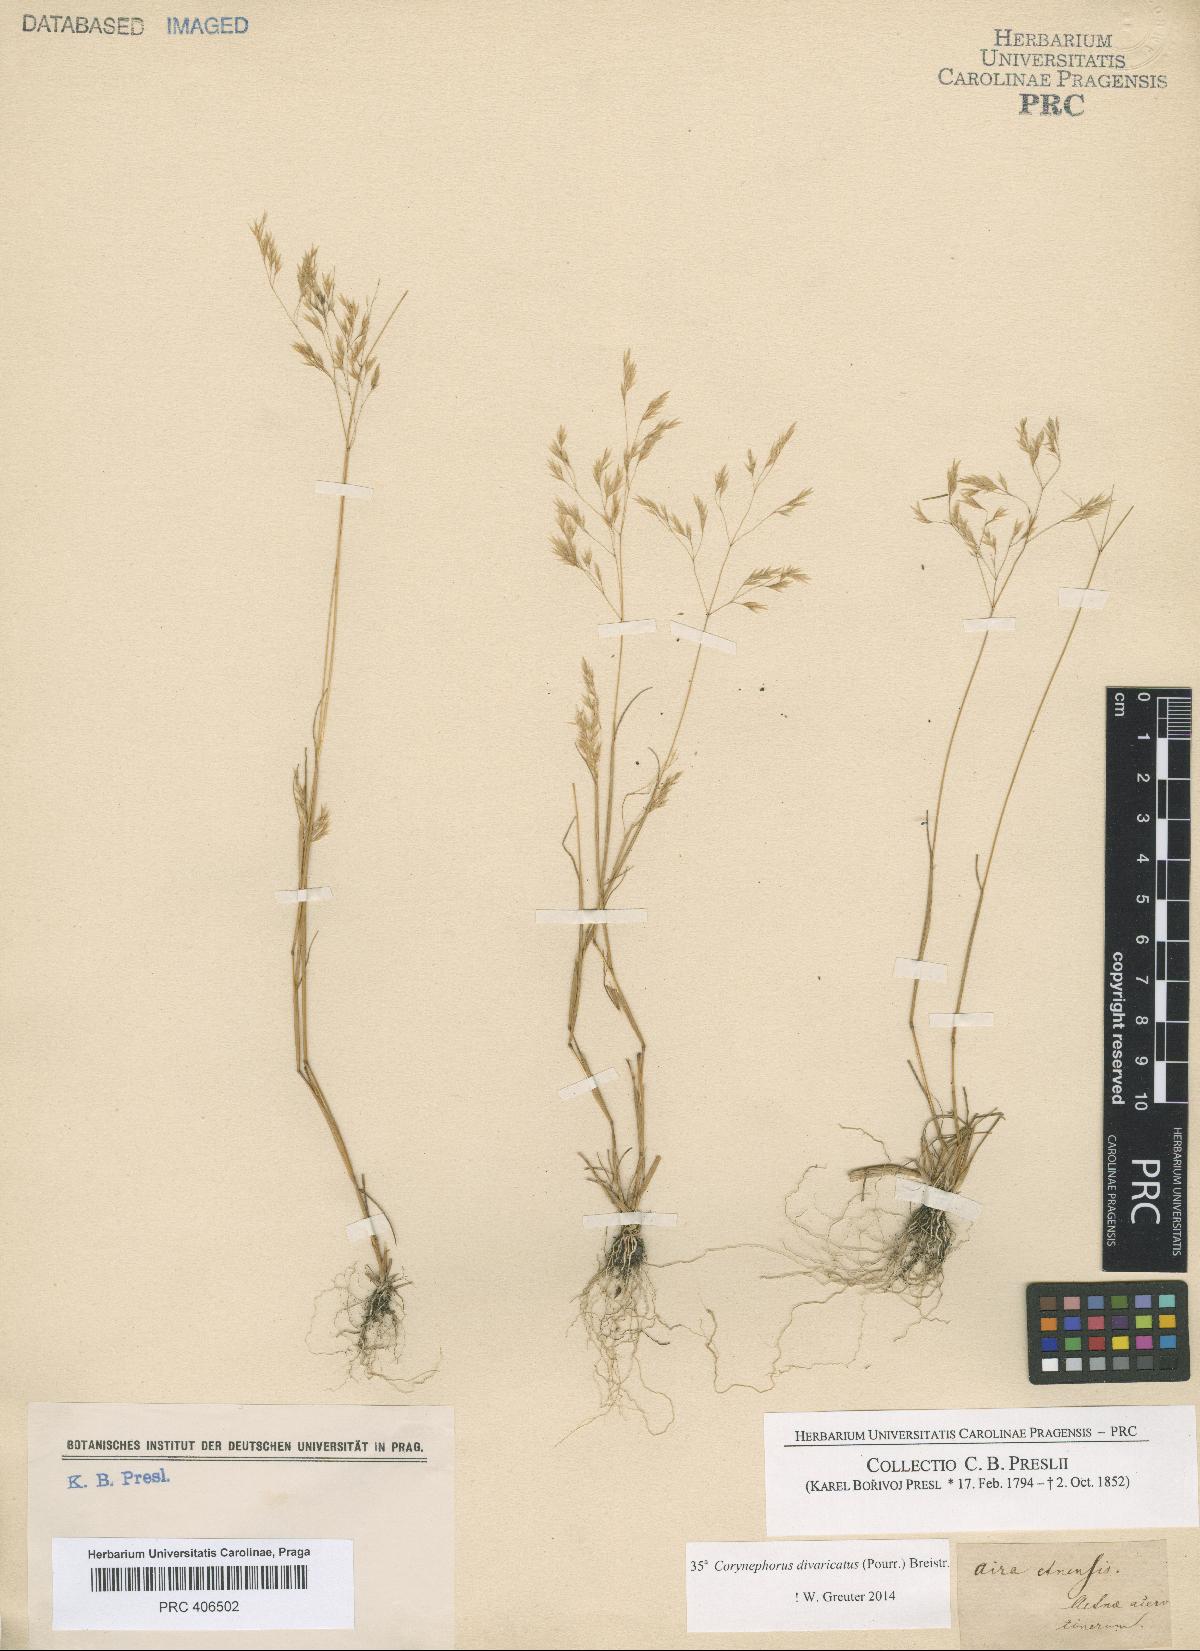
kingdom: Plantae
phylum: Tracheophyta
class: Liliopsida
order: Poales
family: Poaceae
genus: Corynephorus
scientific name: Corynephorus articulatus
